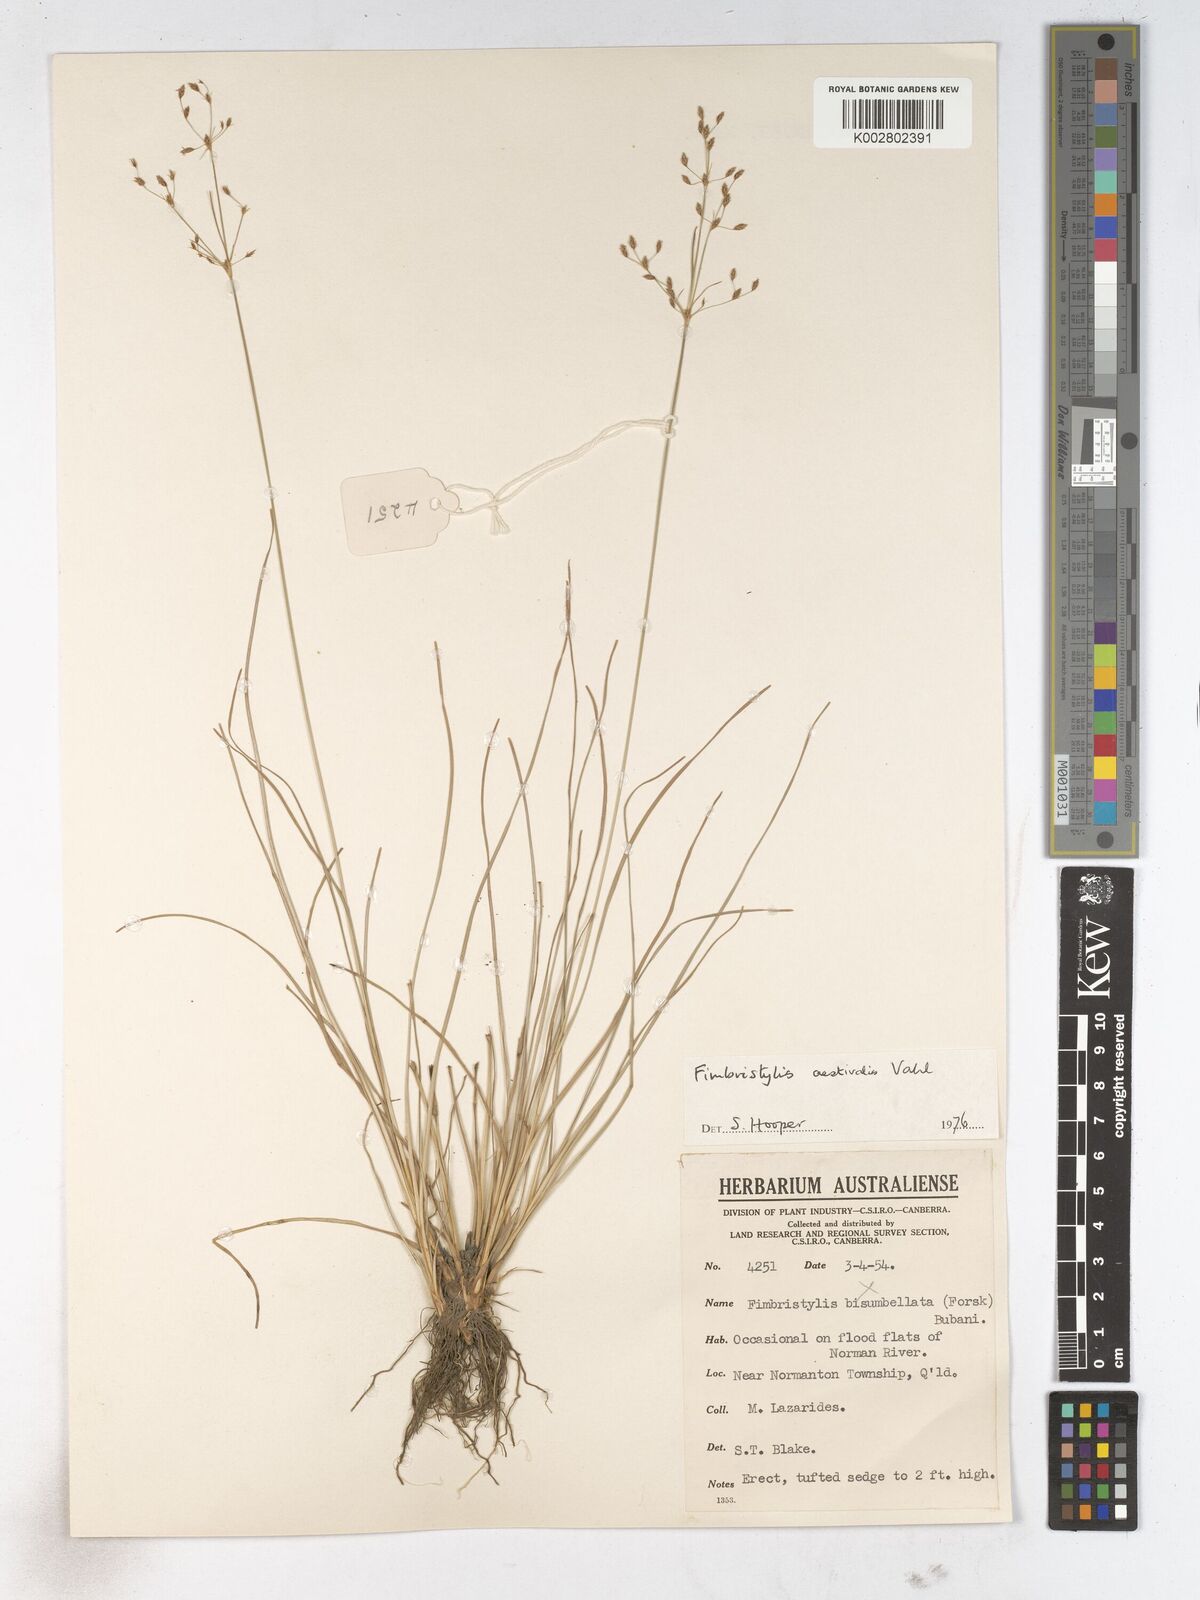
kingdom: Plantae
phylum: Tracheophyta
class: Liliopsida
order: Poales
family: Cyperaceae
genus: Fimbristylis
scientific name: Fimbristylis aestivalis
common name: Summer fimbry
